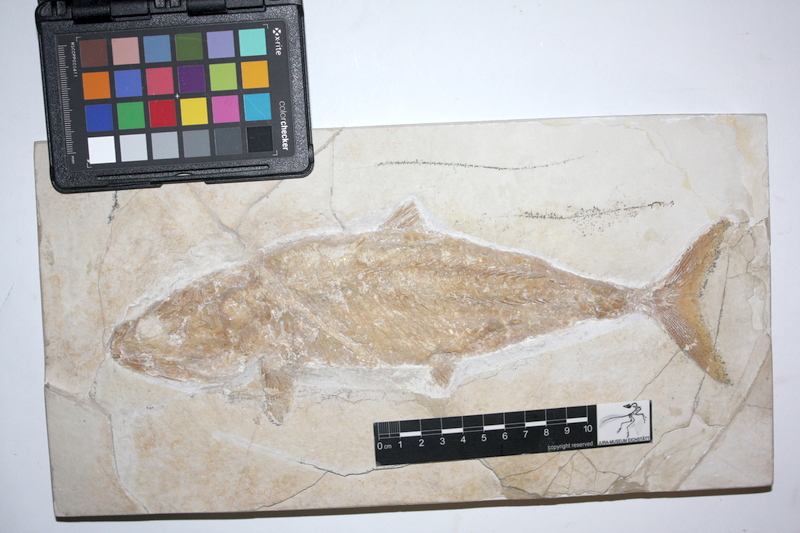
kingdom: Animalia
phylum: Chordata
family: Ankylophoridae
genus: Siemensichthys
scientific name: Siemensichthys macrocephalus
